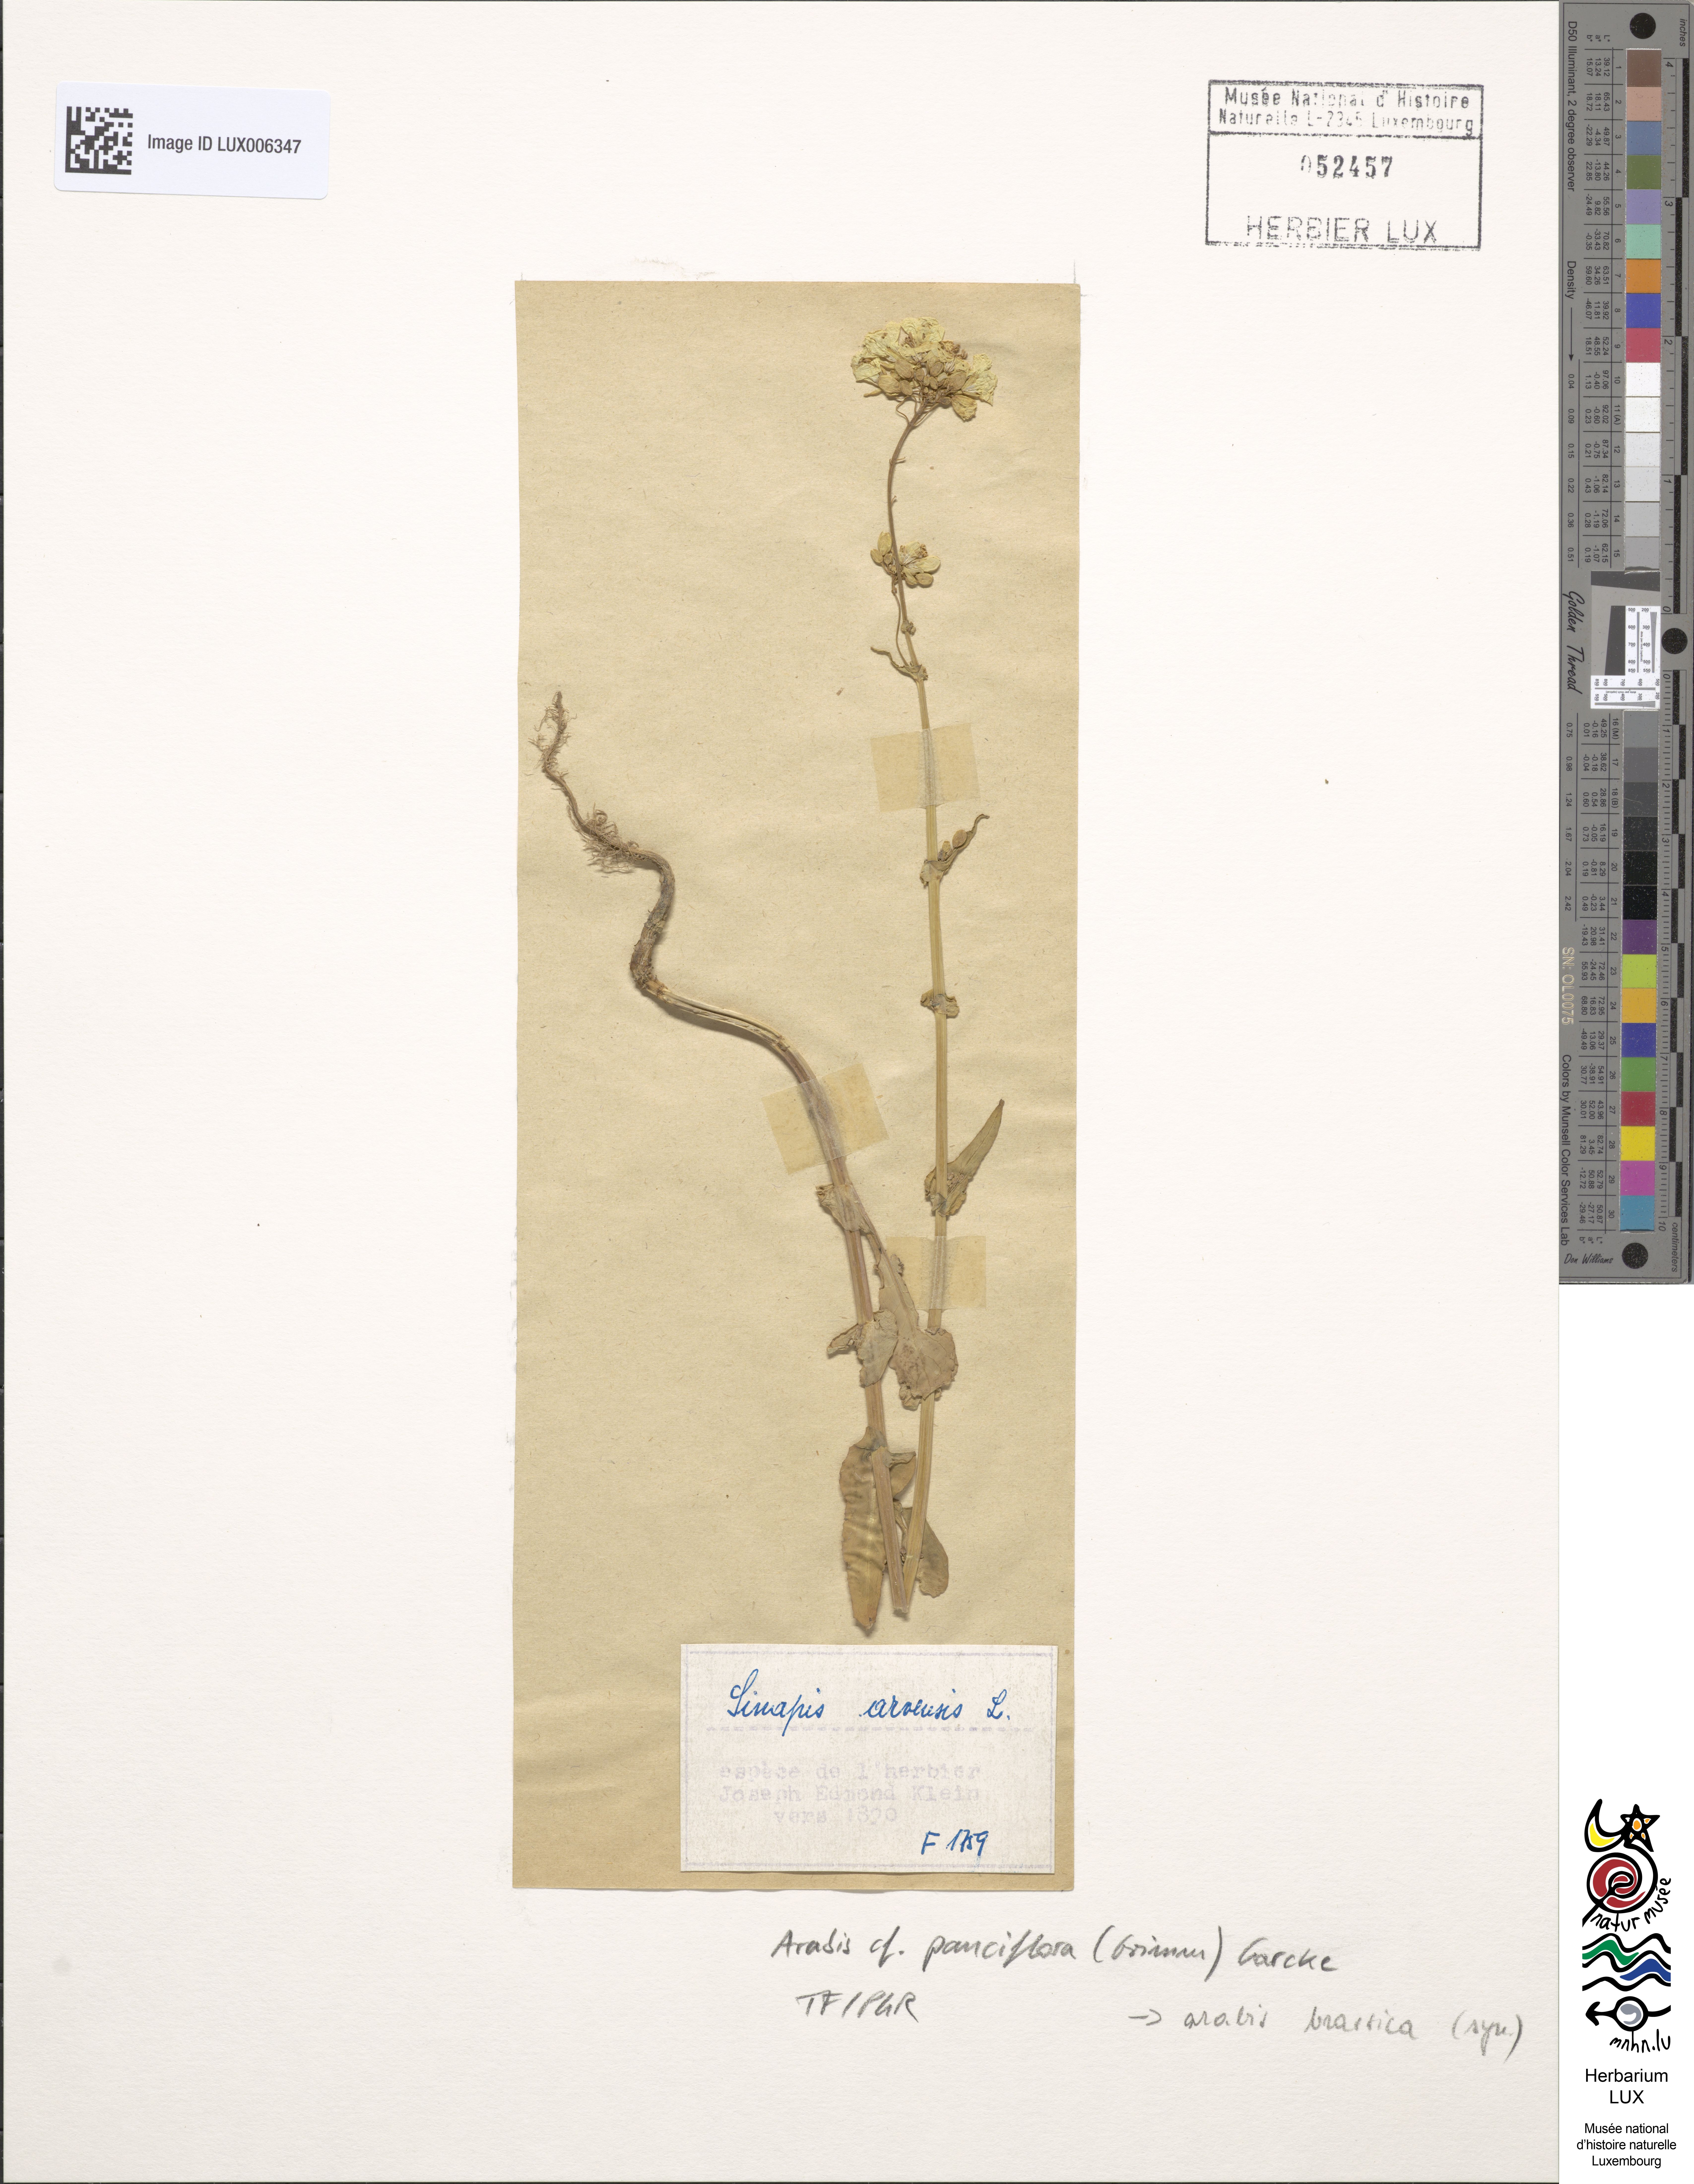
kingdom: Plantae
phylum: Tracheophyta
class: Magnoliopsida
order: Brassicales
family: Brassicaceae
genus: Fourraea
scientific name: Fourraea alpina
